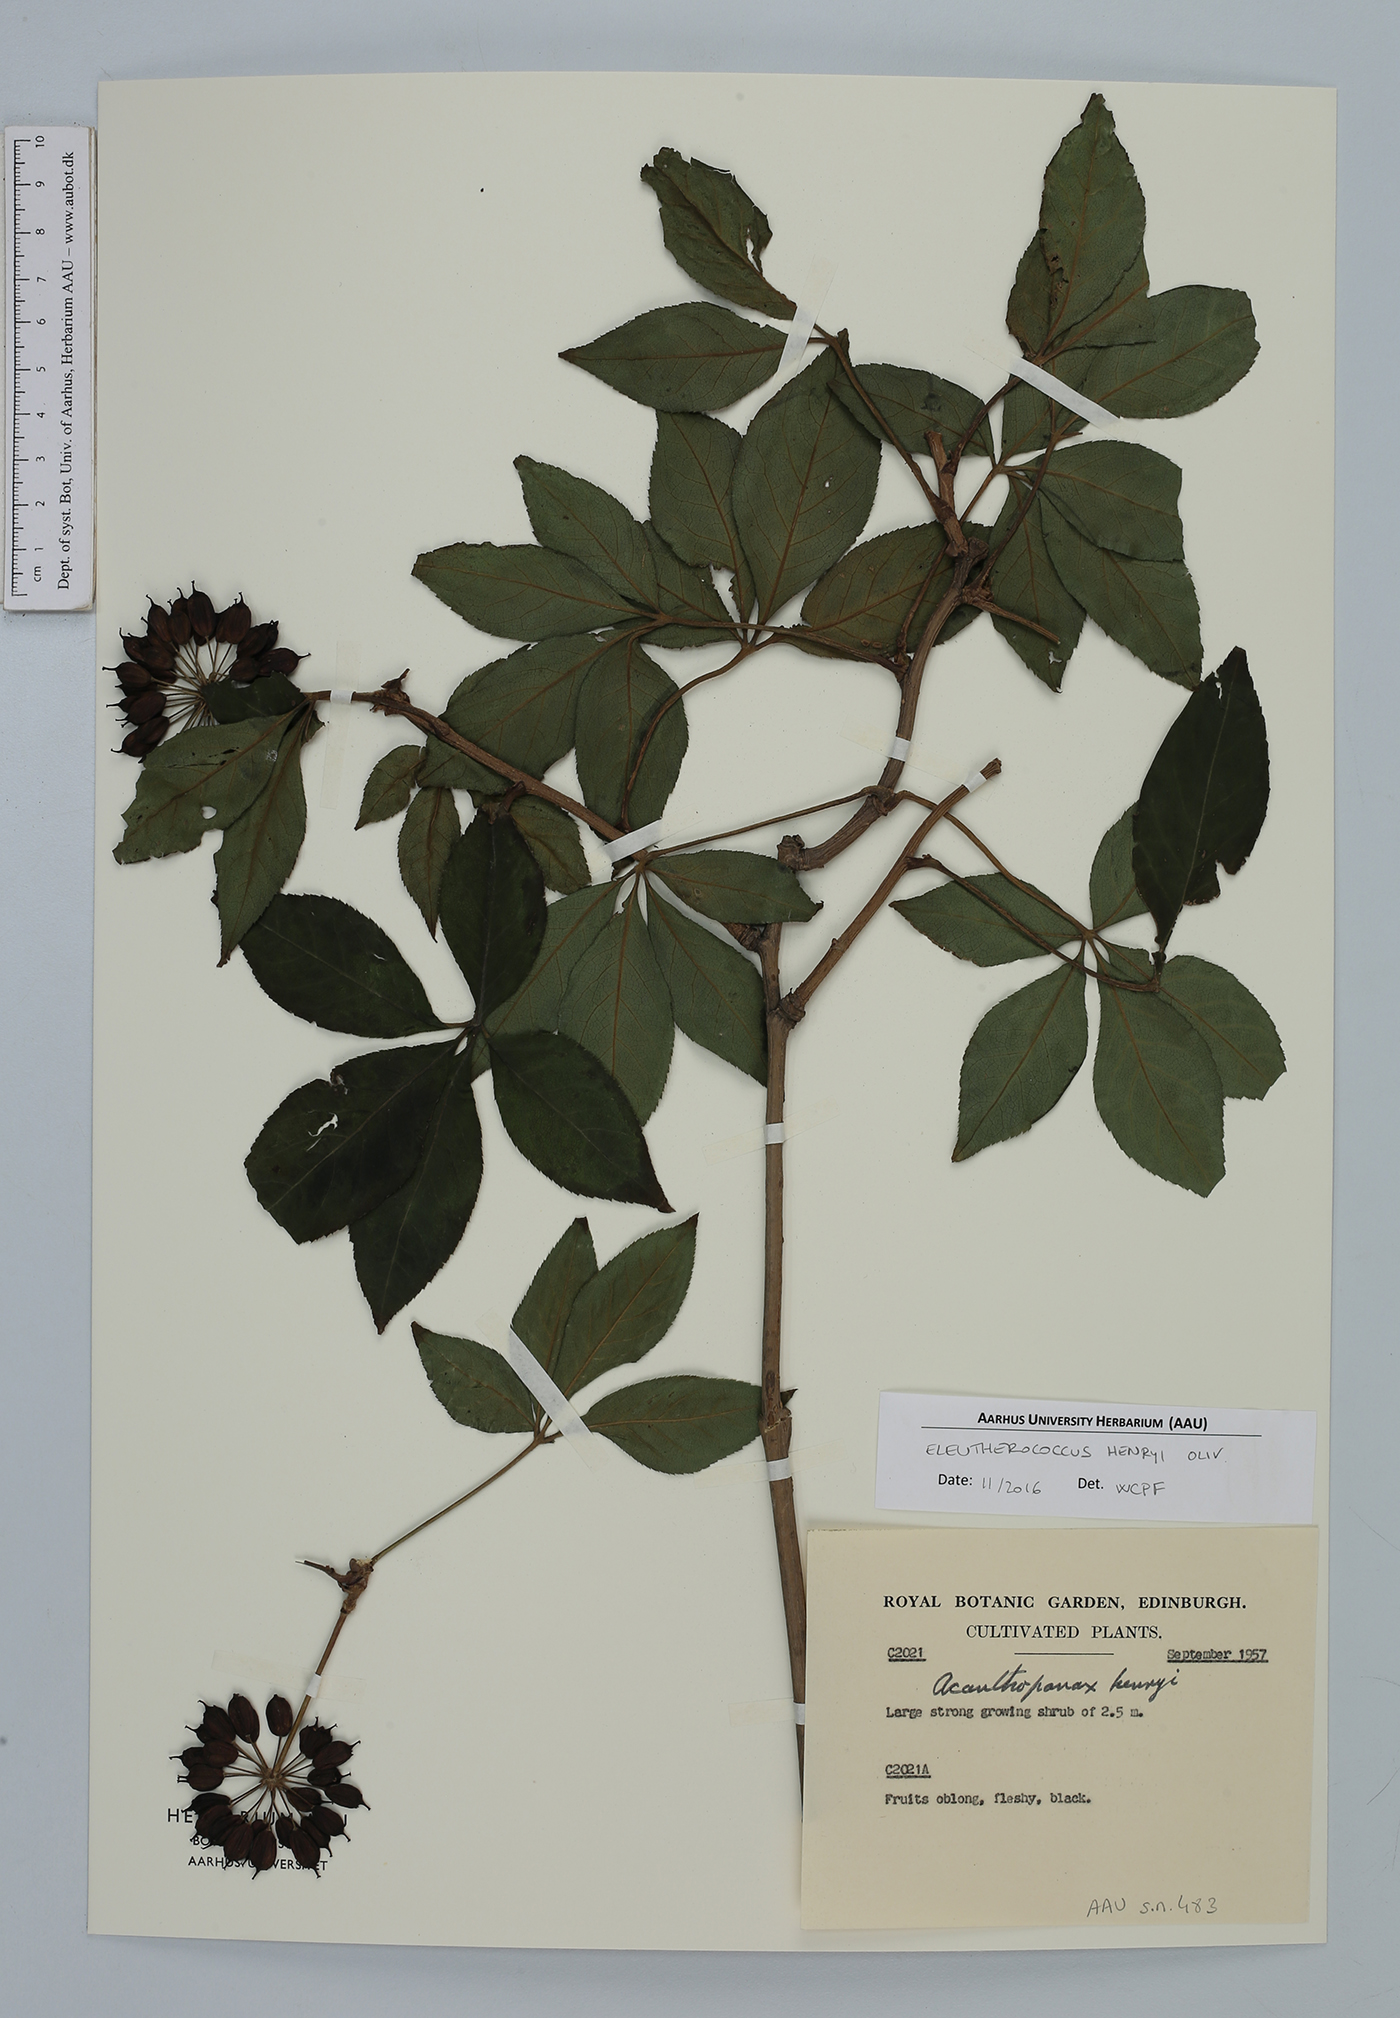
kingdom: Plantae
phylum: Tracheophyta
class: Magnoliopsida
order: Apiales
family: Araliaceae
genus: Eleutherococcus
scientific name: Eleutherococcus henryi
